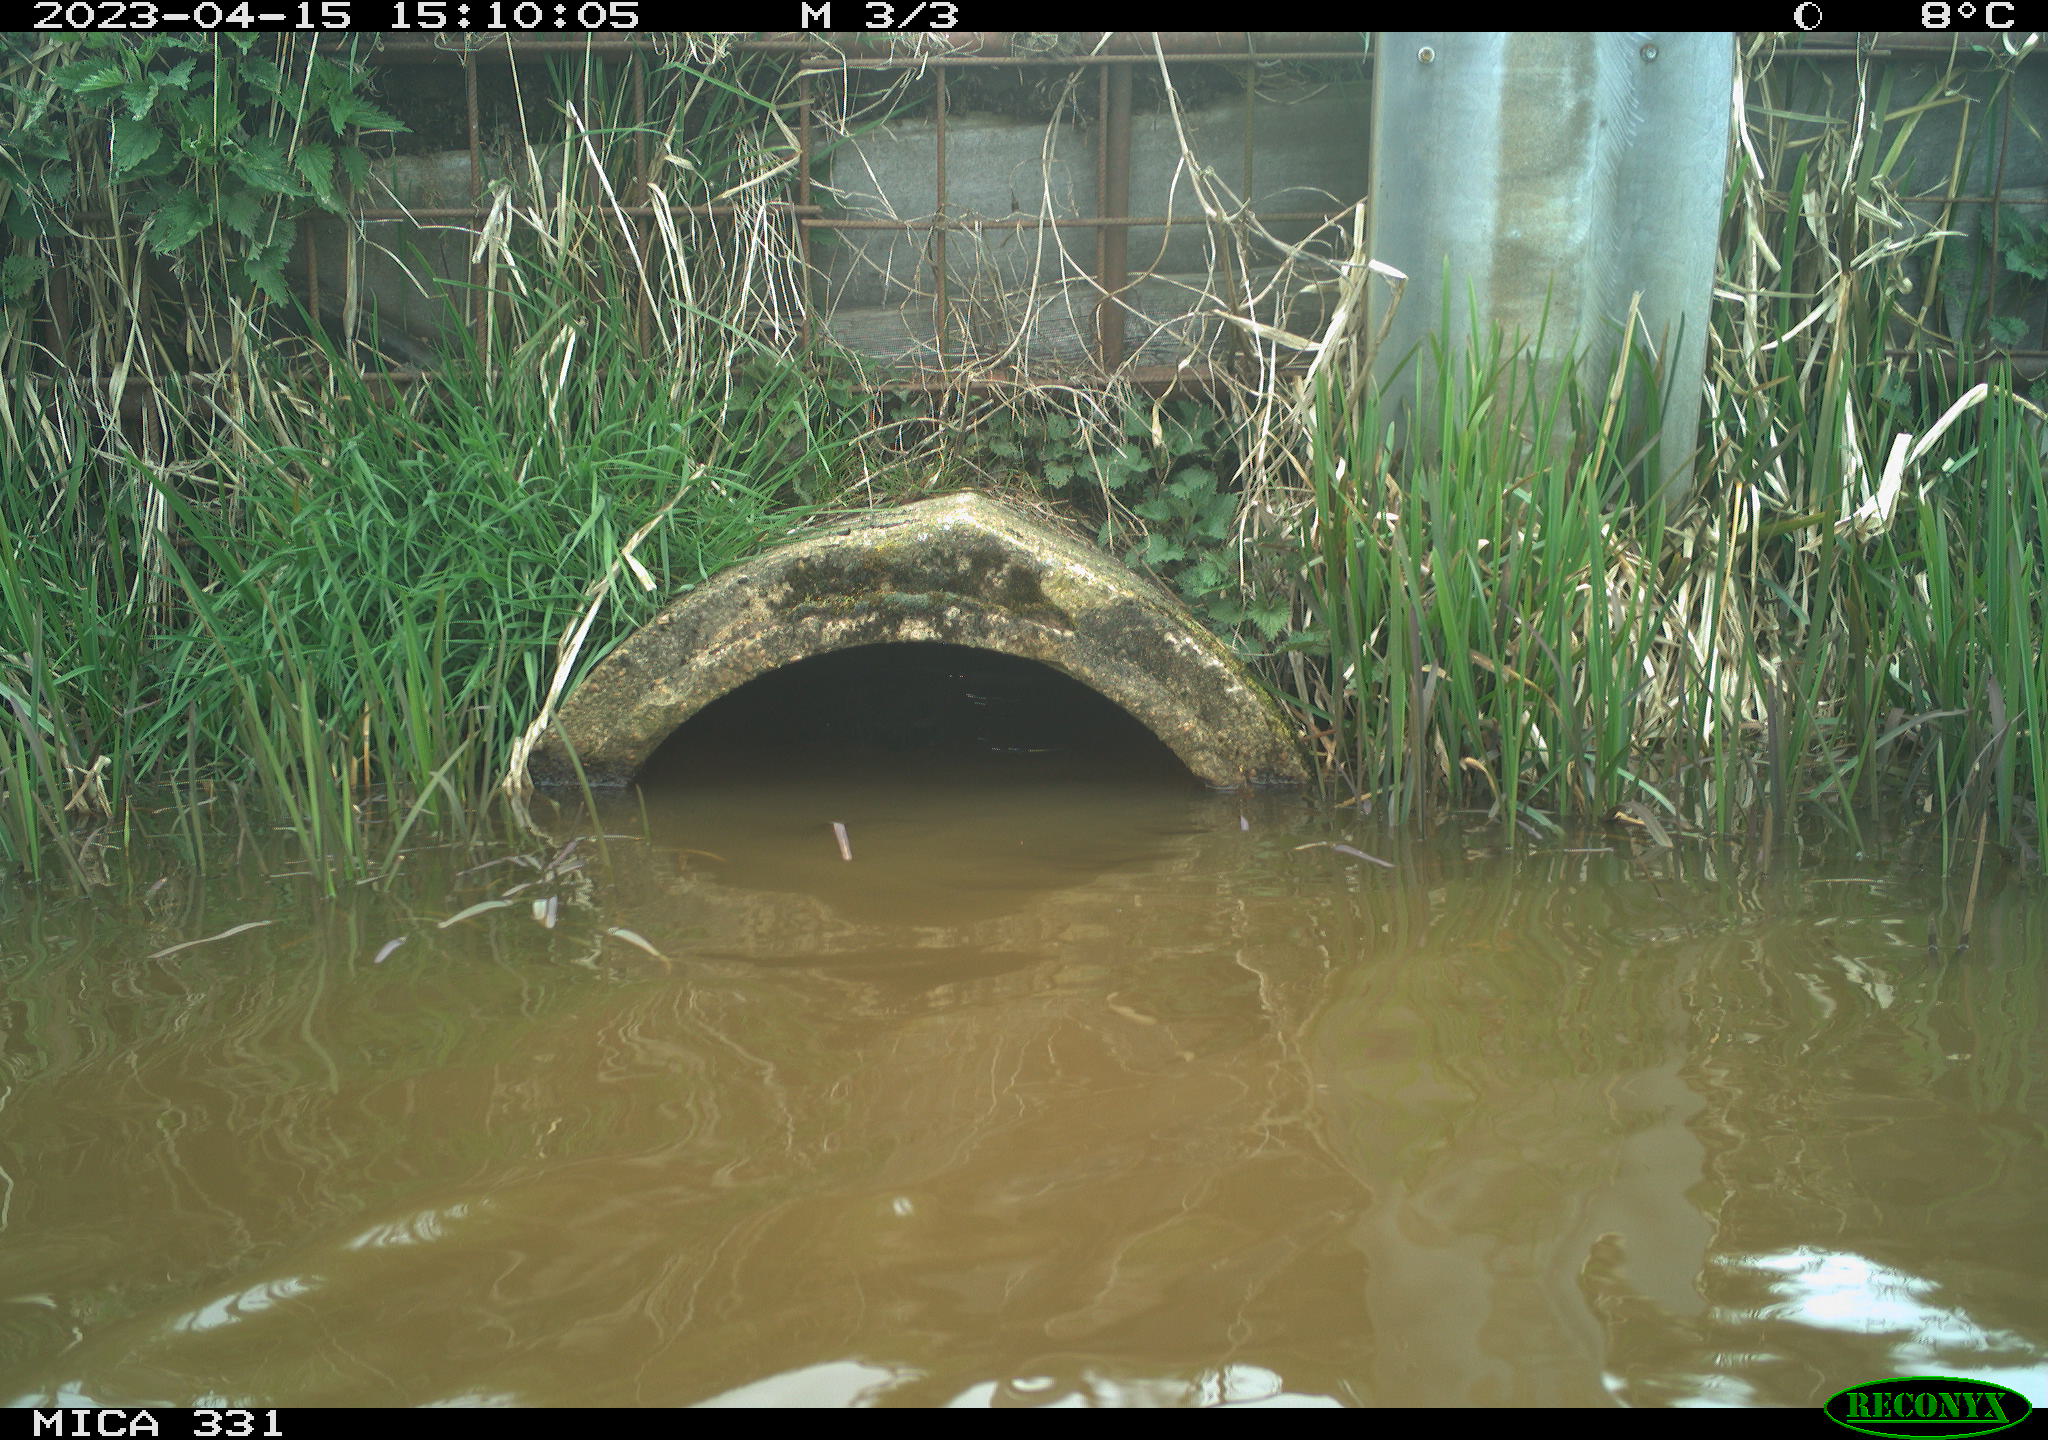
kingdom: Animalia
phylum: Chordata
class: Aves
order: Gruiformes
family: Rallidae
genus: Fulica
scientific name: Fulica atra
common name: Eurasian coot
